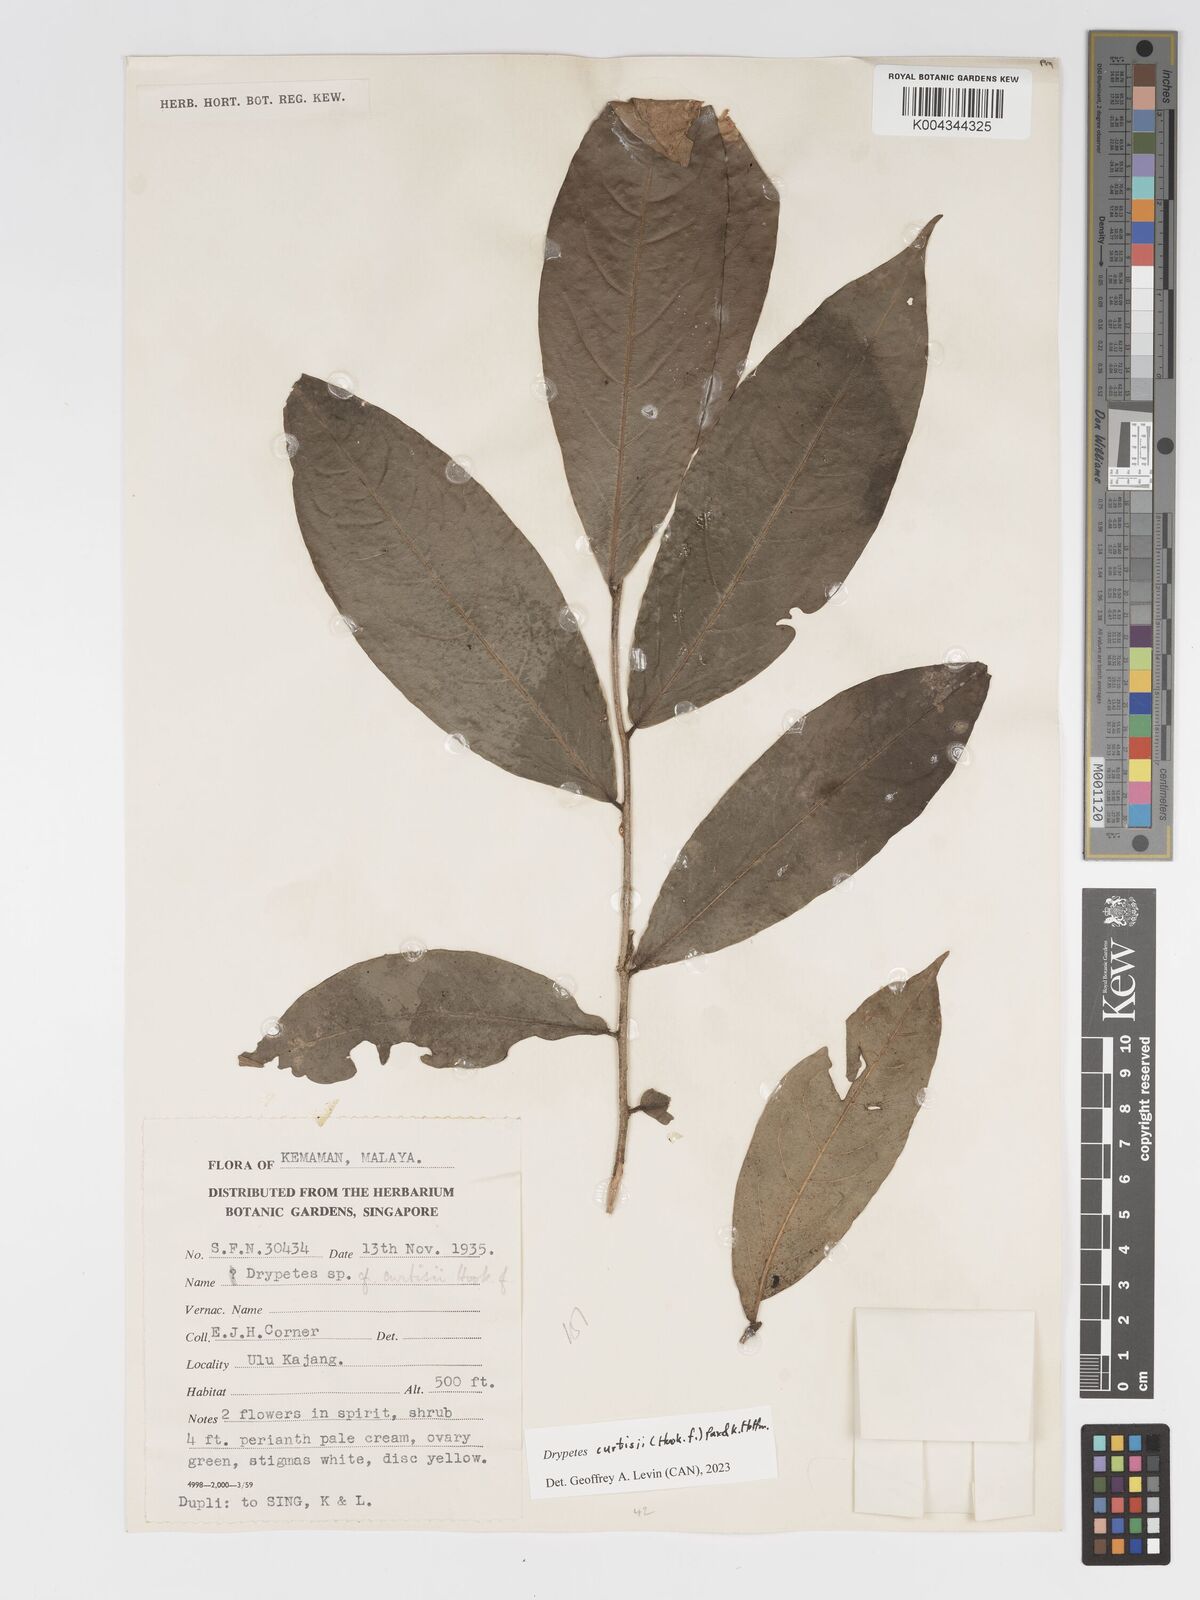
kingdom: Plantae
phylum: Tracheophyta
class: Magnoliopsida
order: Malpighiales
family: Putranjivaceae
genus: Drypetes
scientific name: Drypetes curtisii
